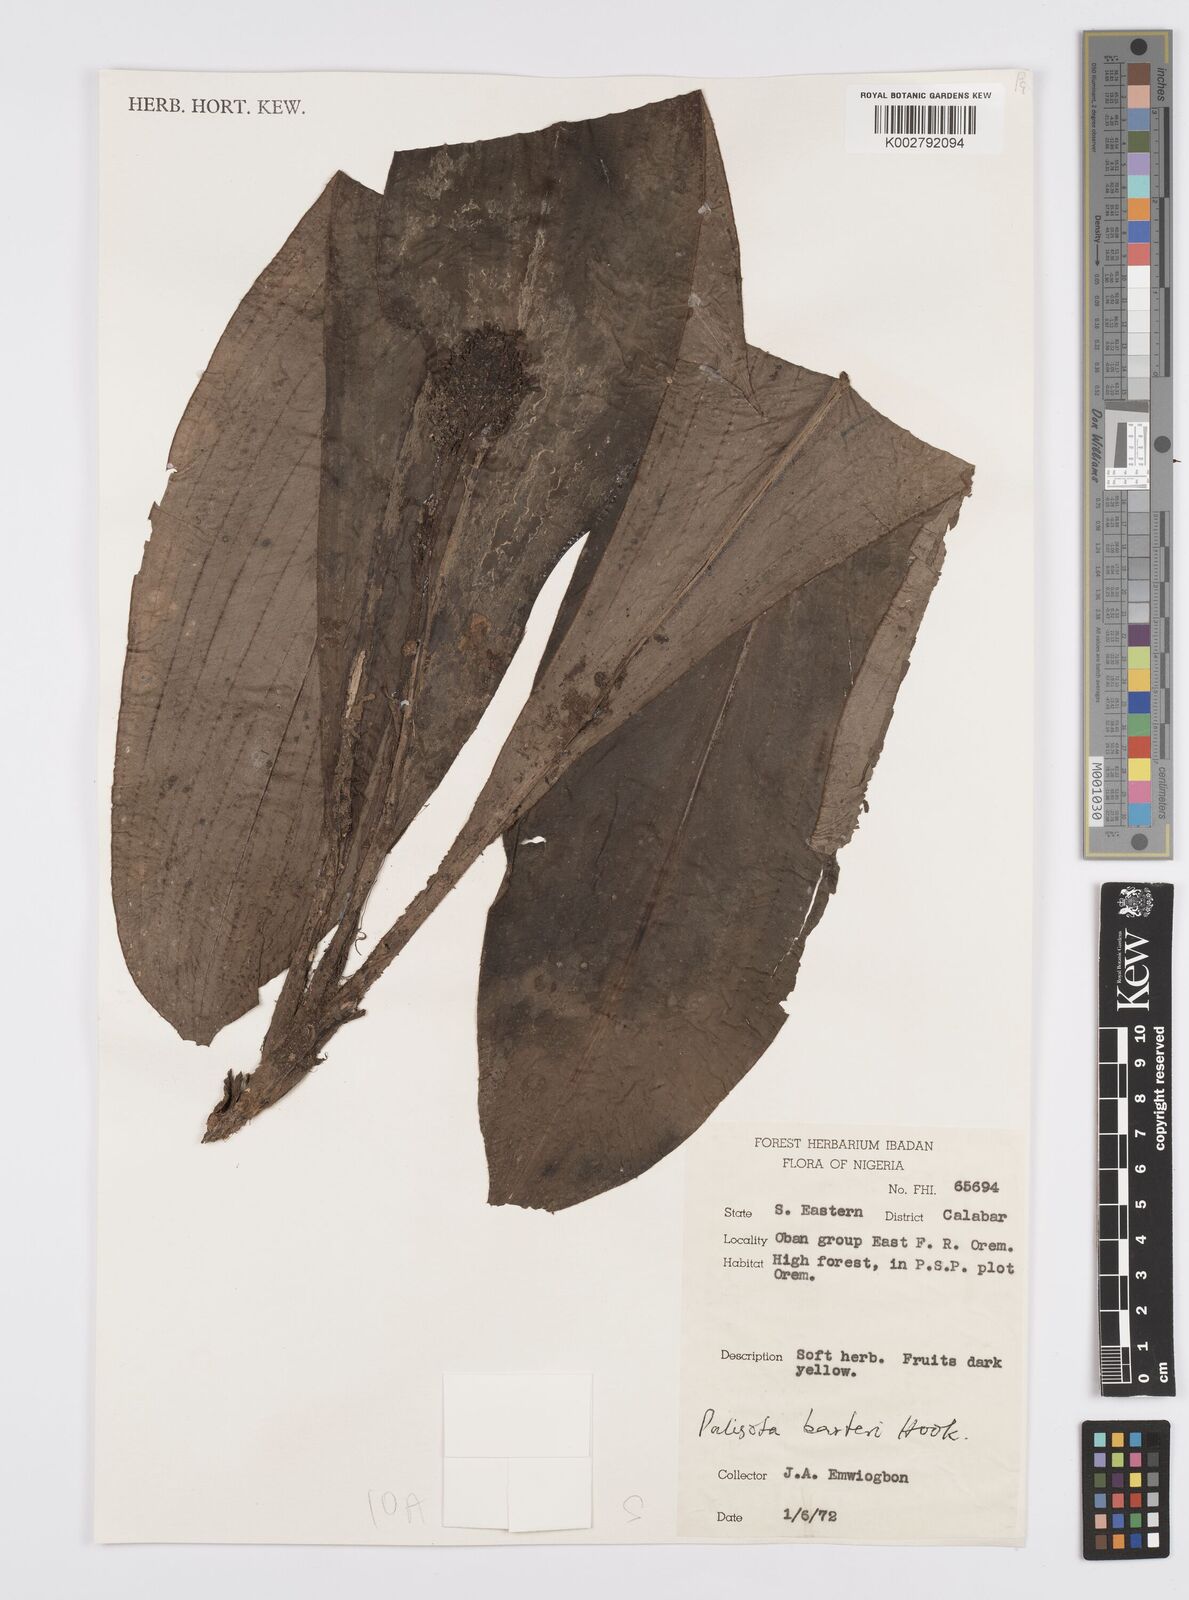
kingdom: Plantae
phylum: Tracheophyta
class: Liliopsida
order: Commelinales
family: Commelinaceae
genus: Palisota
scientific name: Palisota barteri
